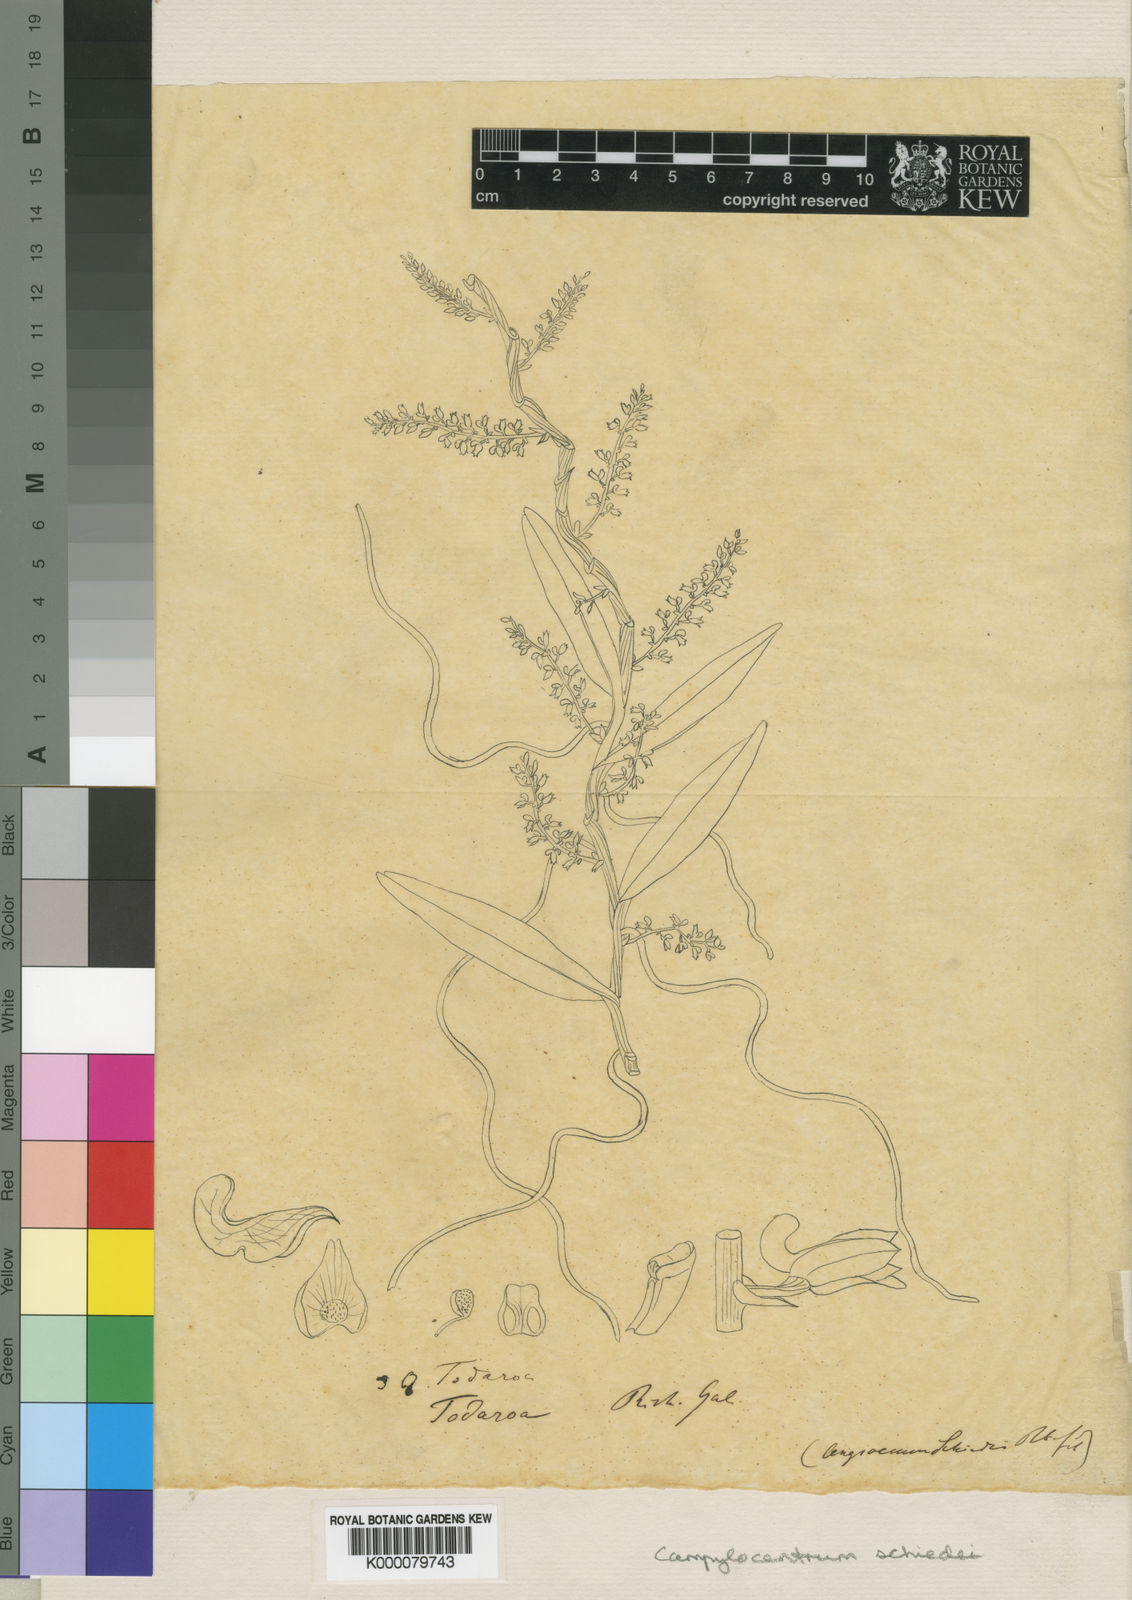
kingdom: Plantae
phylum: Tracheophyta
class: Liliopsida
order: Asparagales
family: Orchidaceae
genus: Campylocentrum
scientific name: Campylocentrum schiedei
